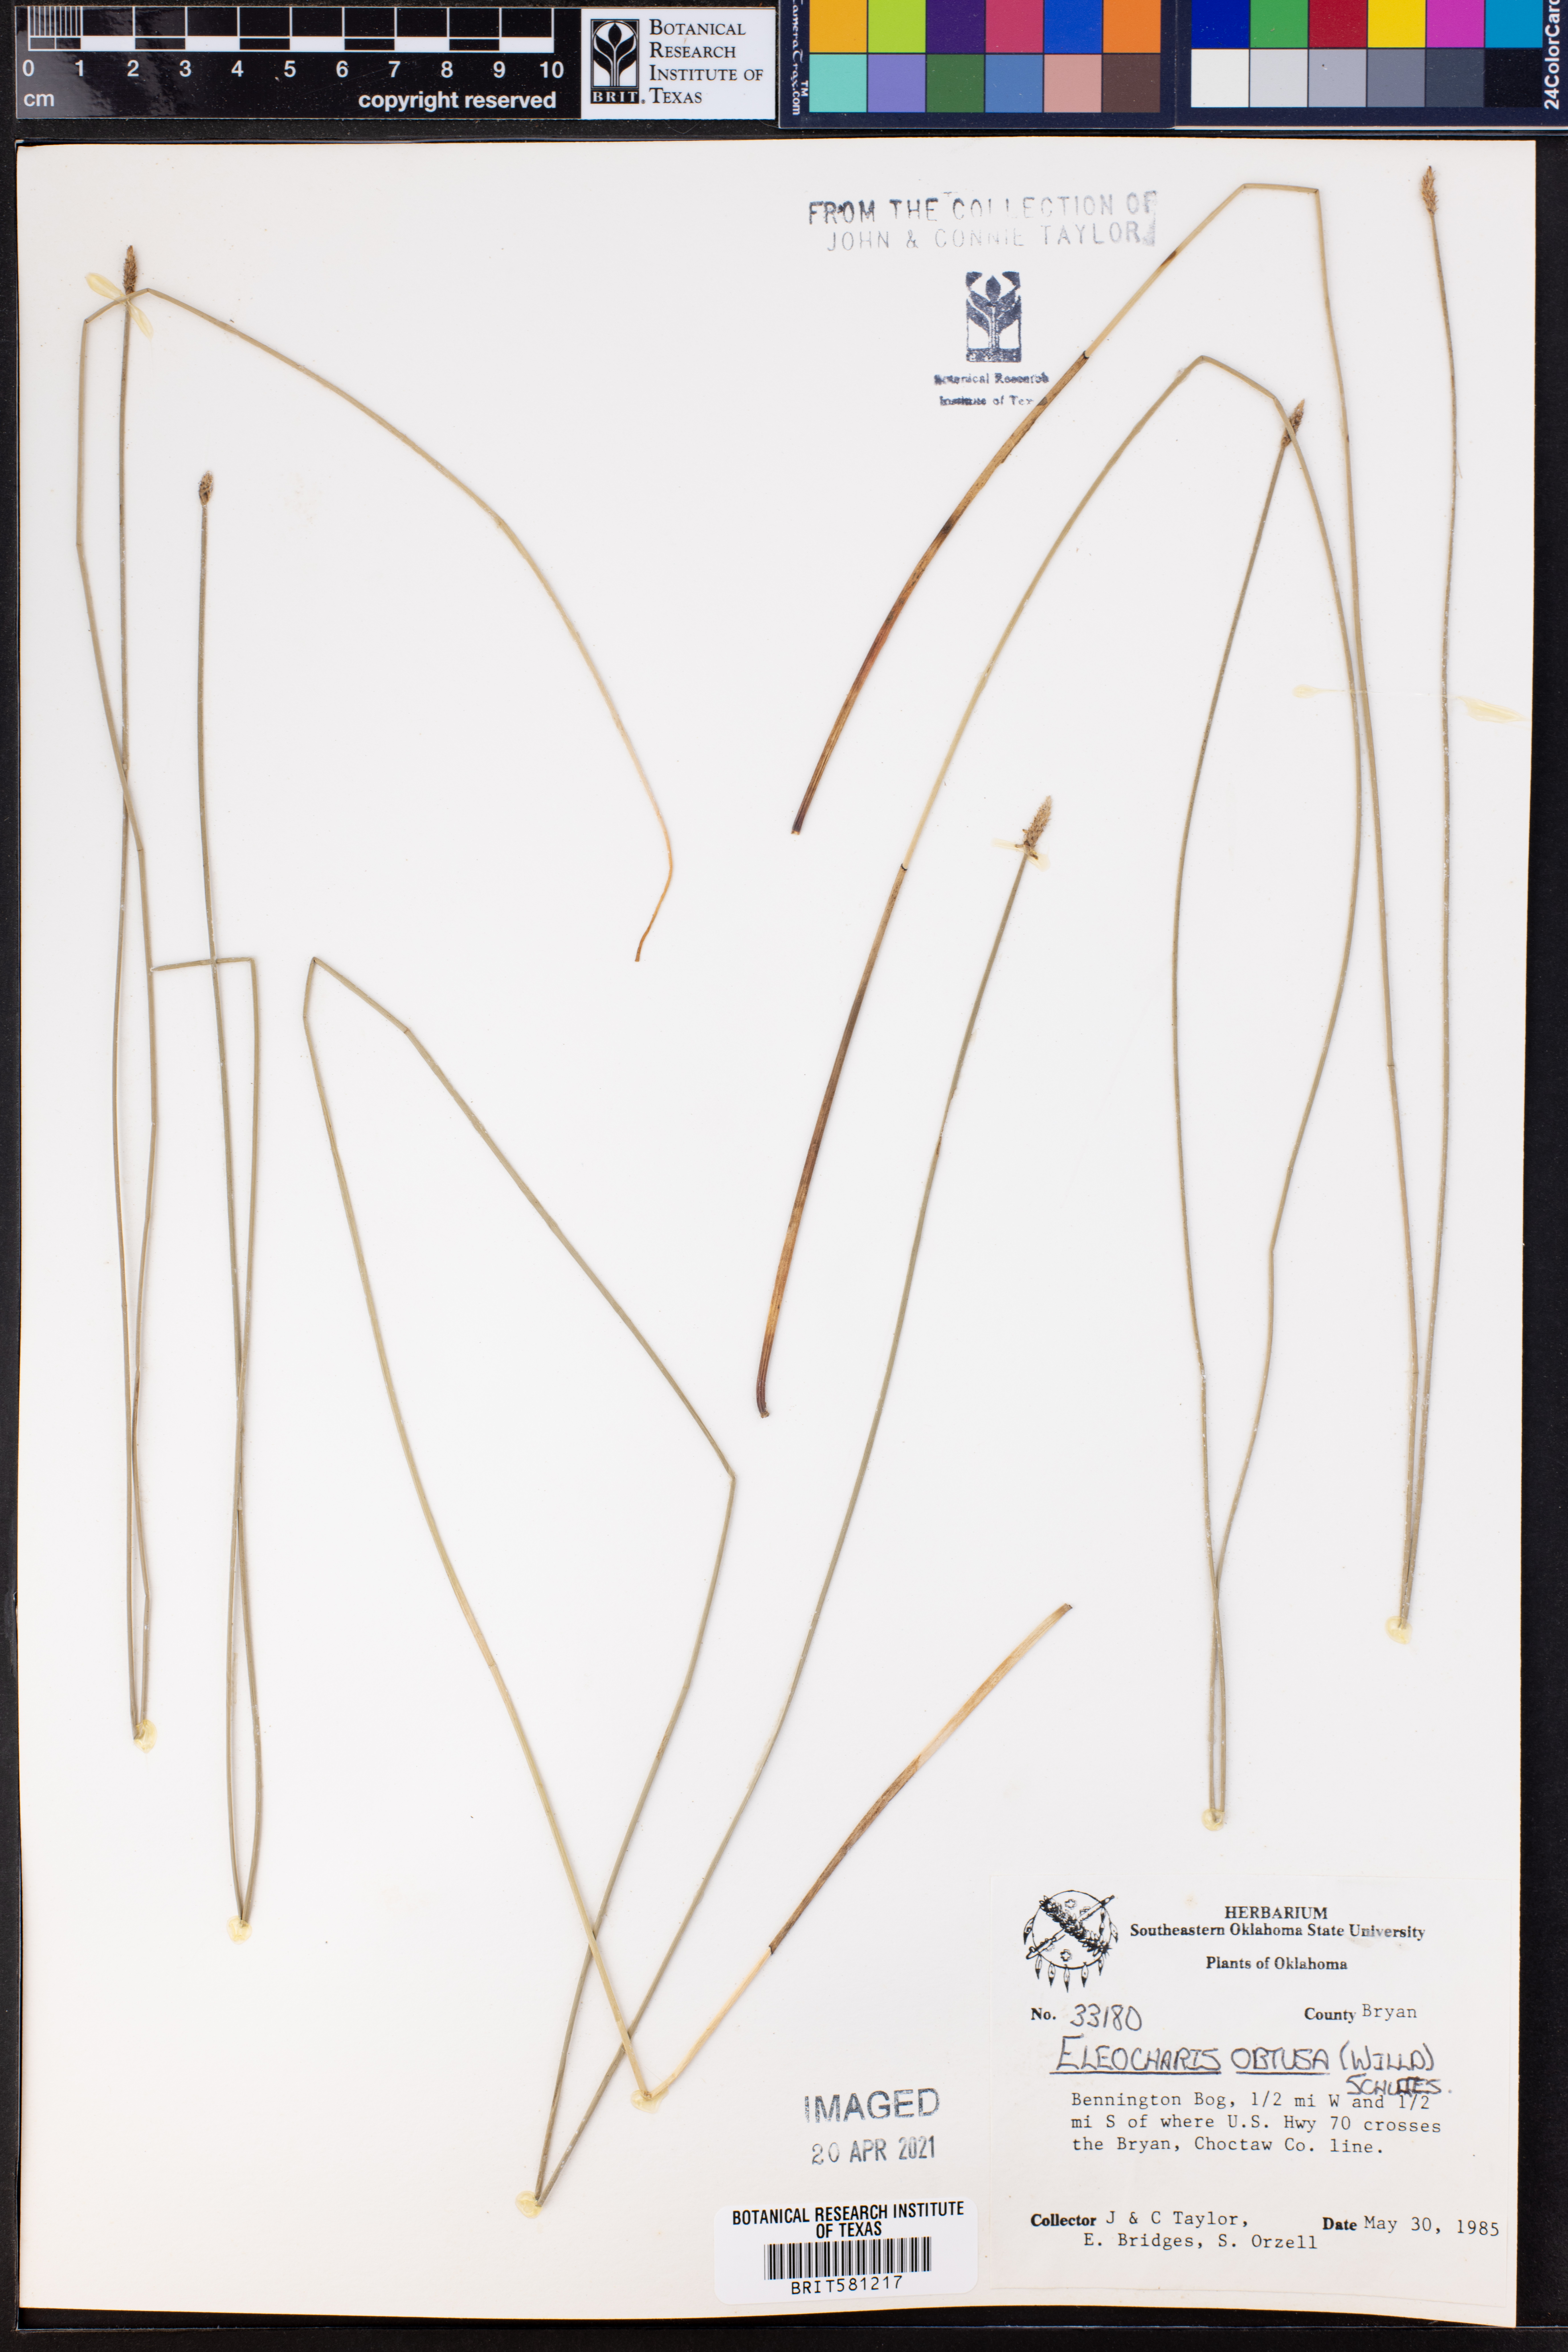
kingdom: Plantae
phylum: Tracheophyta
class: Liliopsida
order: Poales
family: Cyperaceae
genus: Eleocharis
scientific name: Eleocharis obtusa
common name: Blunt spikerush
